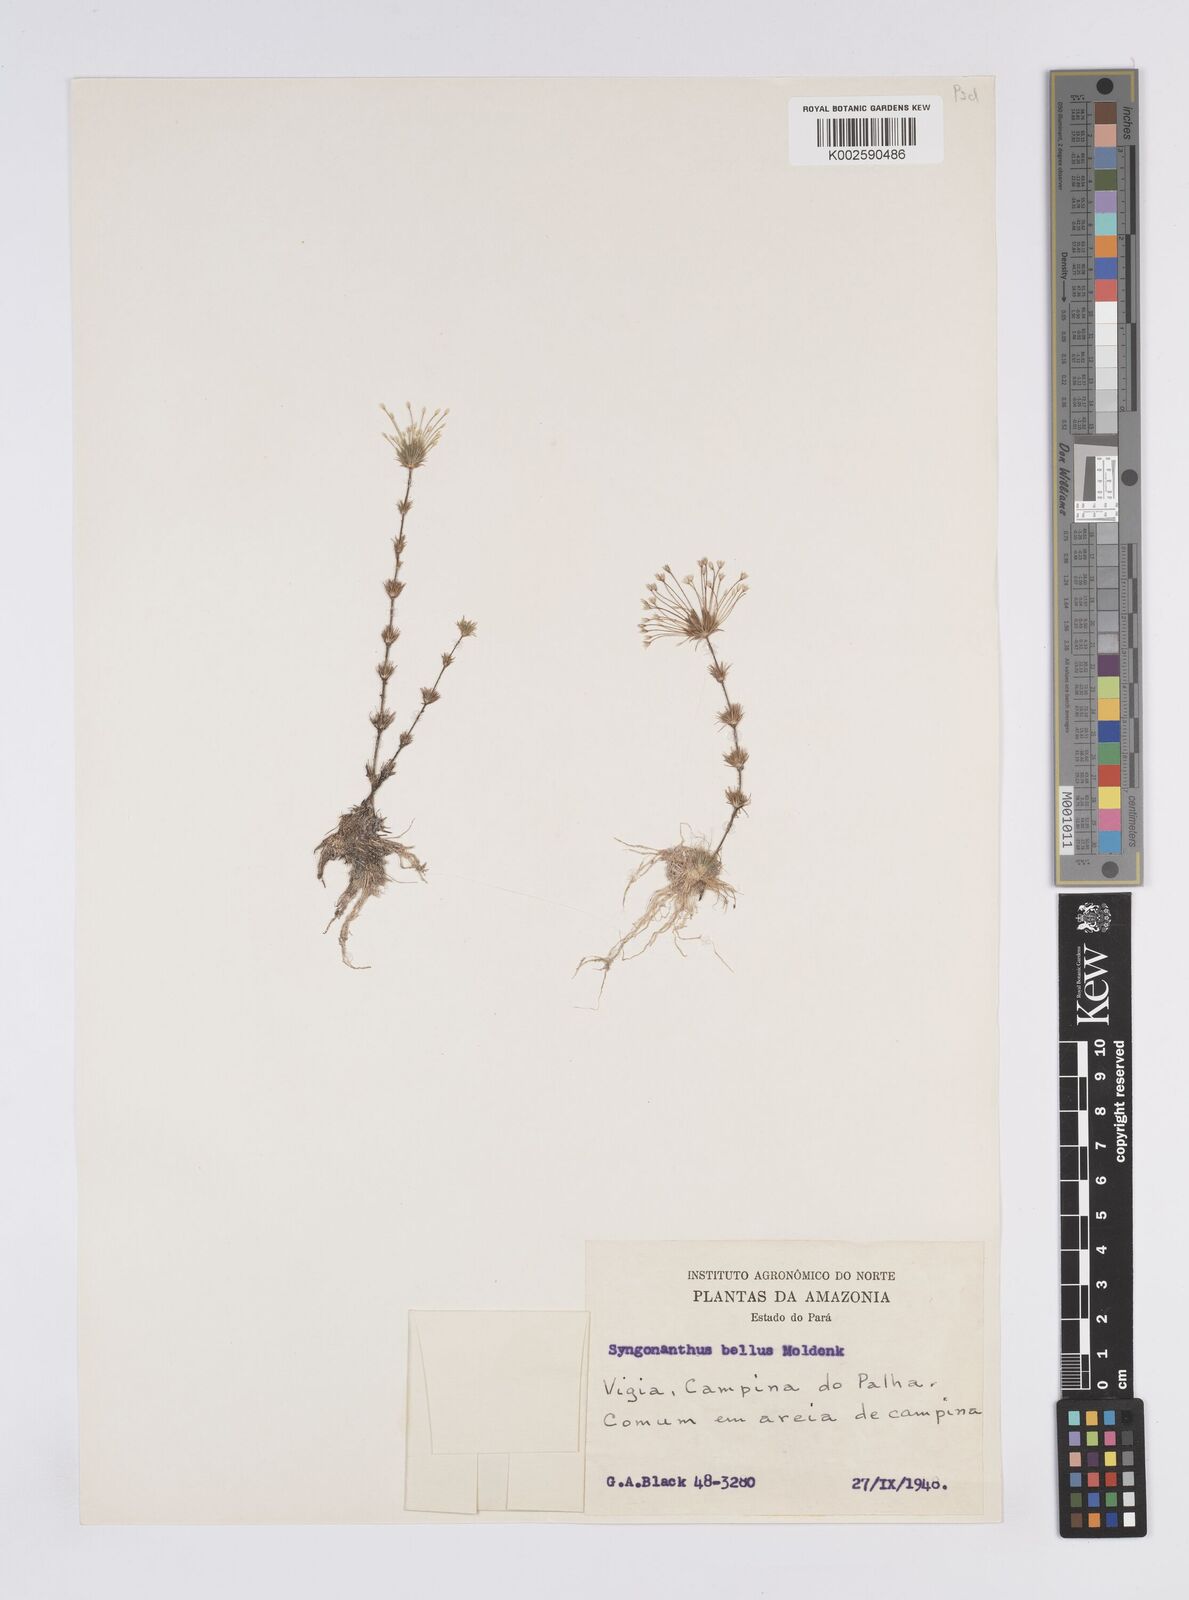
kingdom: Plantae
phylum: Tracheophyta
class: Liliopsida
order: Poales
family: Eriocaulaceae
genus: Syngonanthus
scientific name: Syngonanthus bellus
